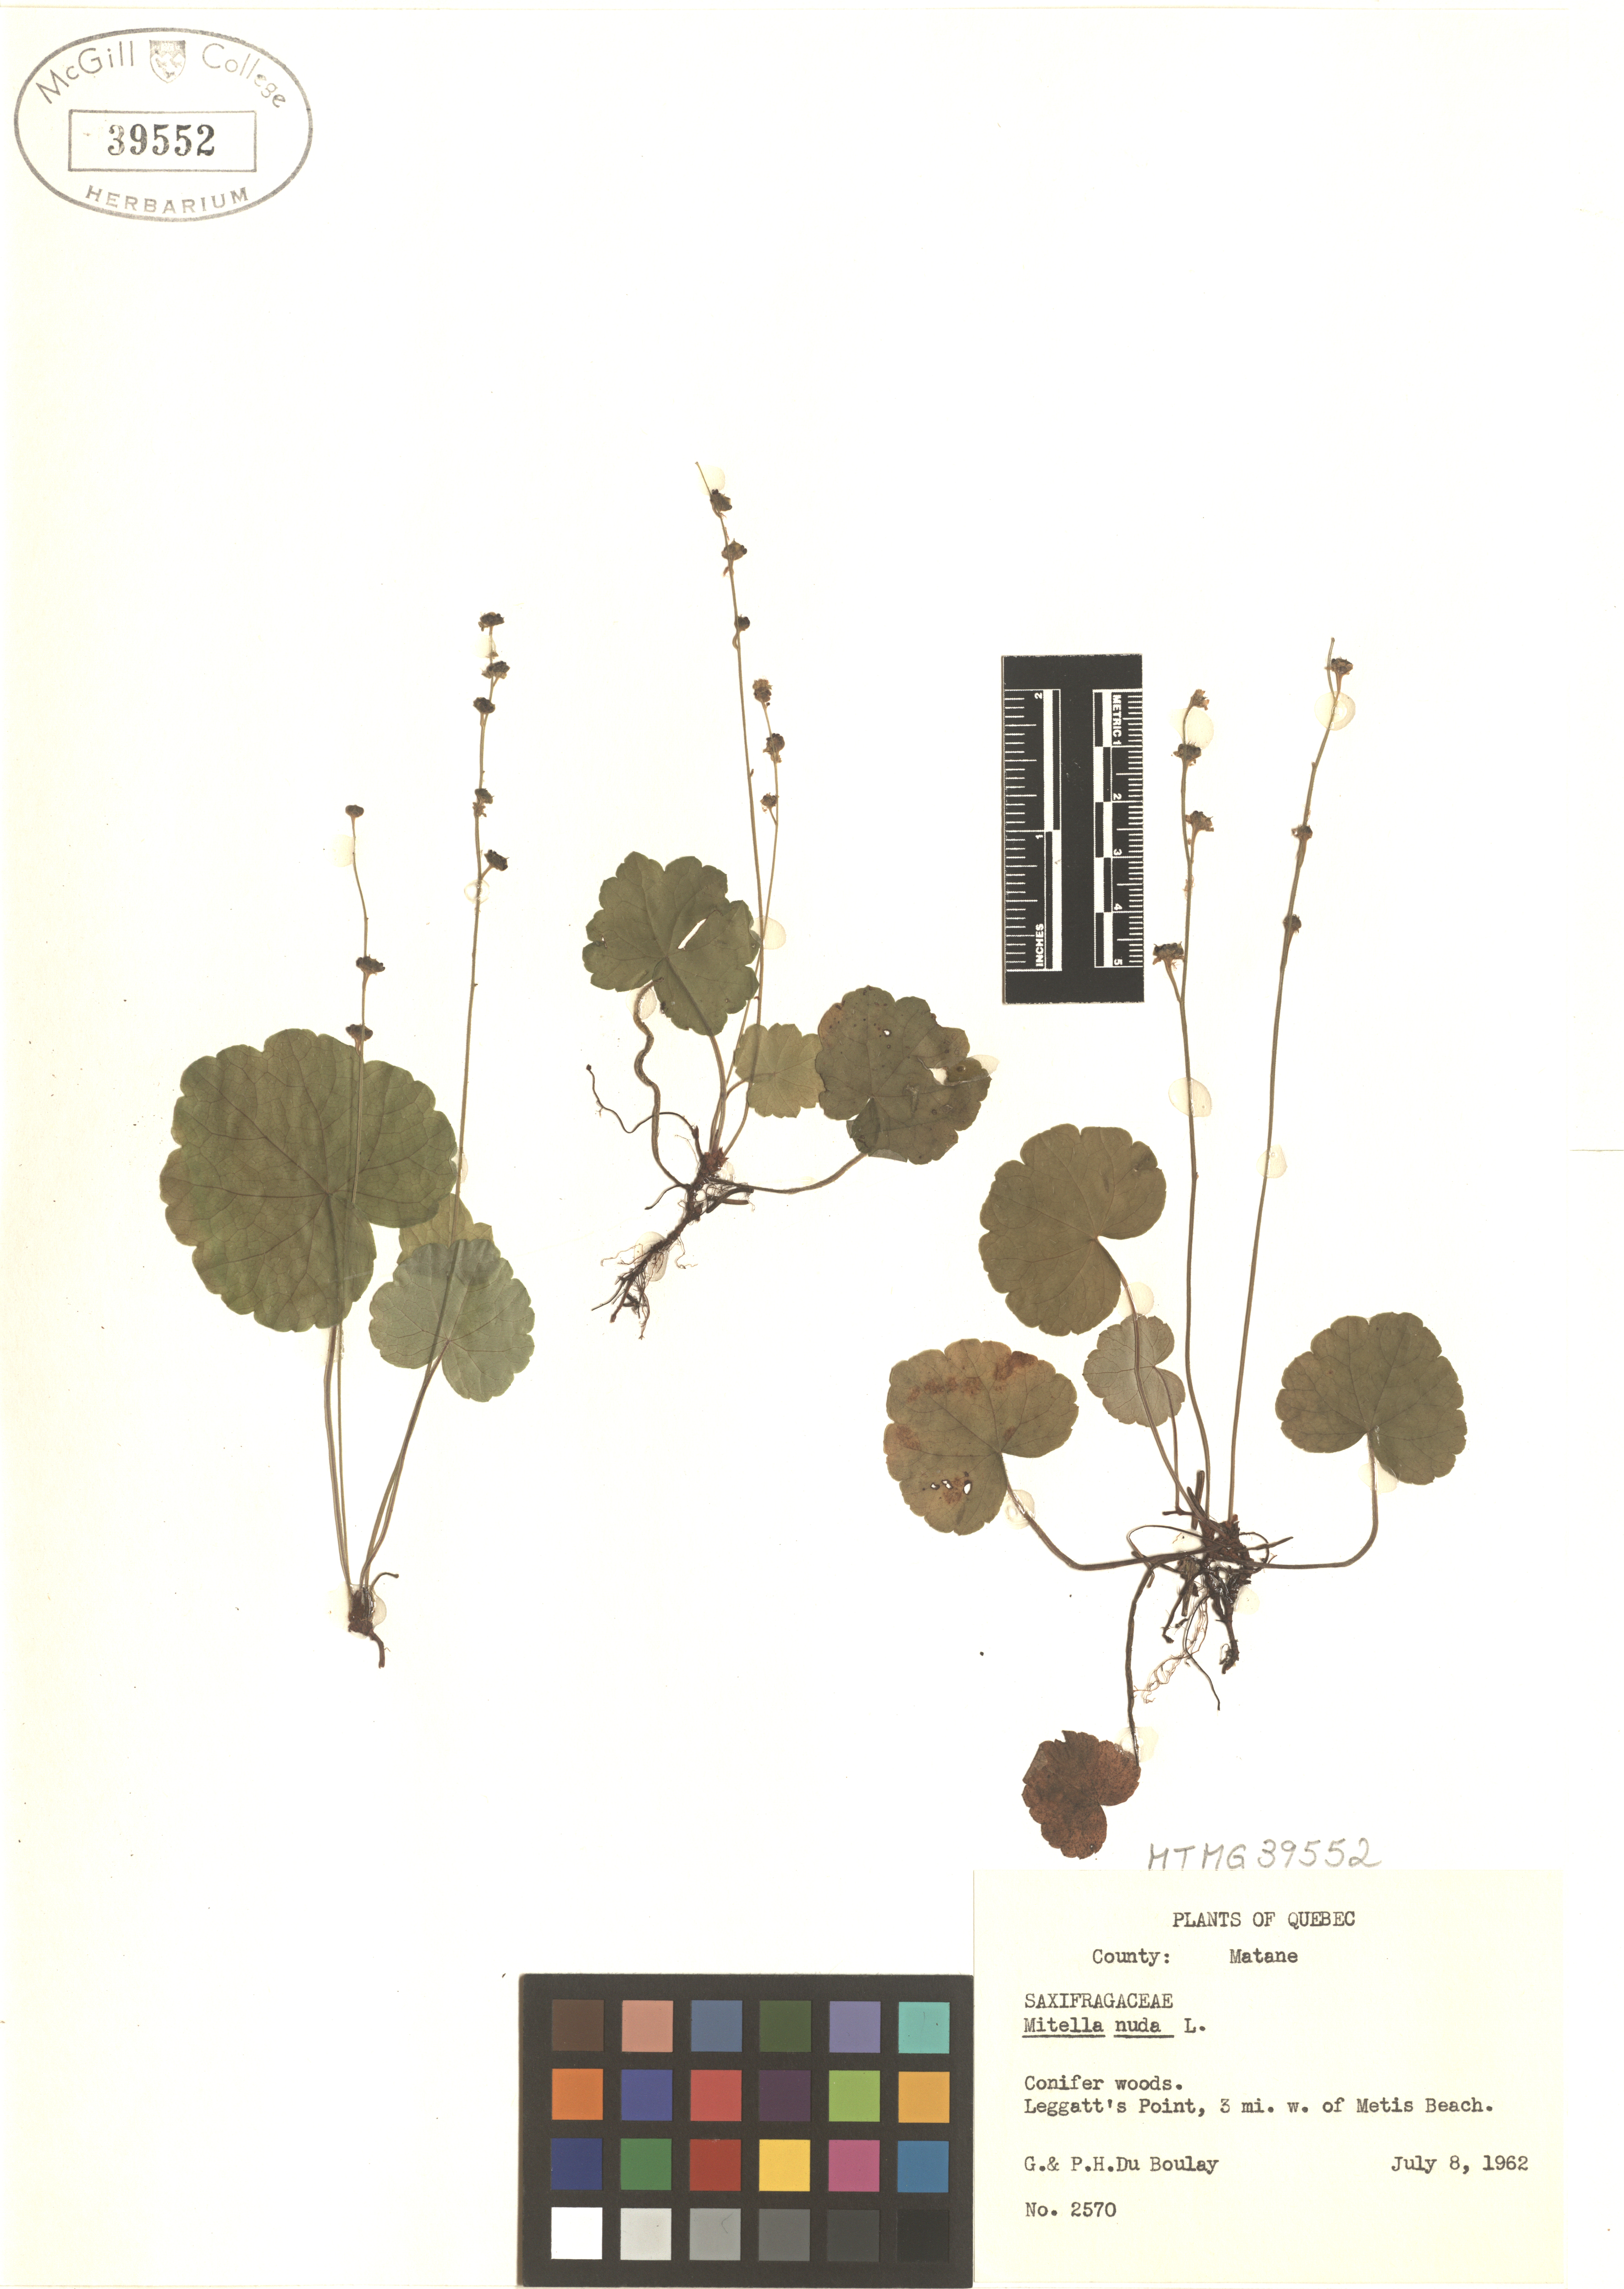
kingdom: Plantae
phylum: Tracheophyta
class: Magnoliopsida
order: Saxifragales
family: Saxifragaceae
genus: Mitella
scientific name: Mitella nuda
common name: Bare-stemmed bishop's-cap
